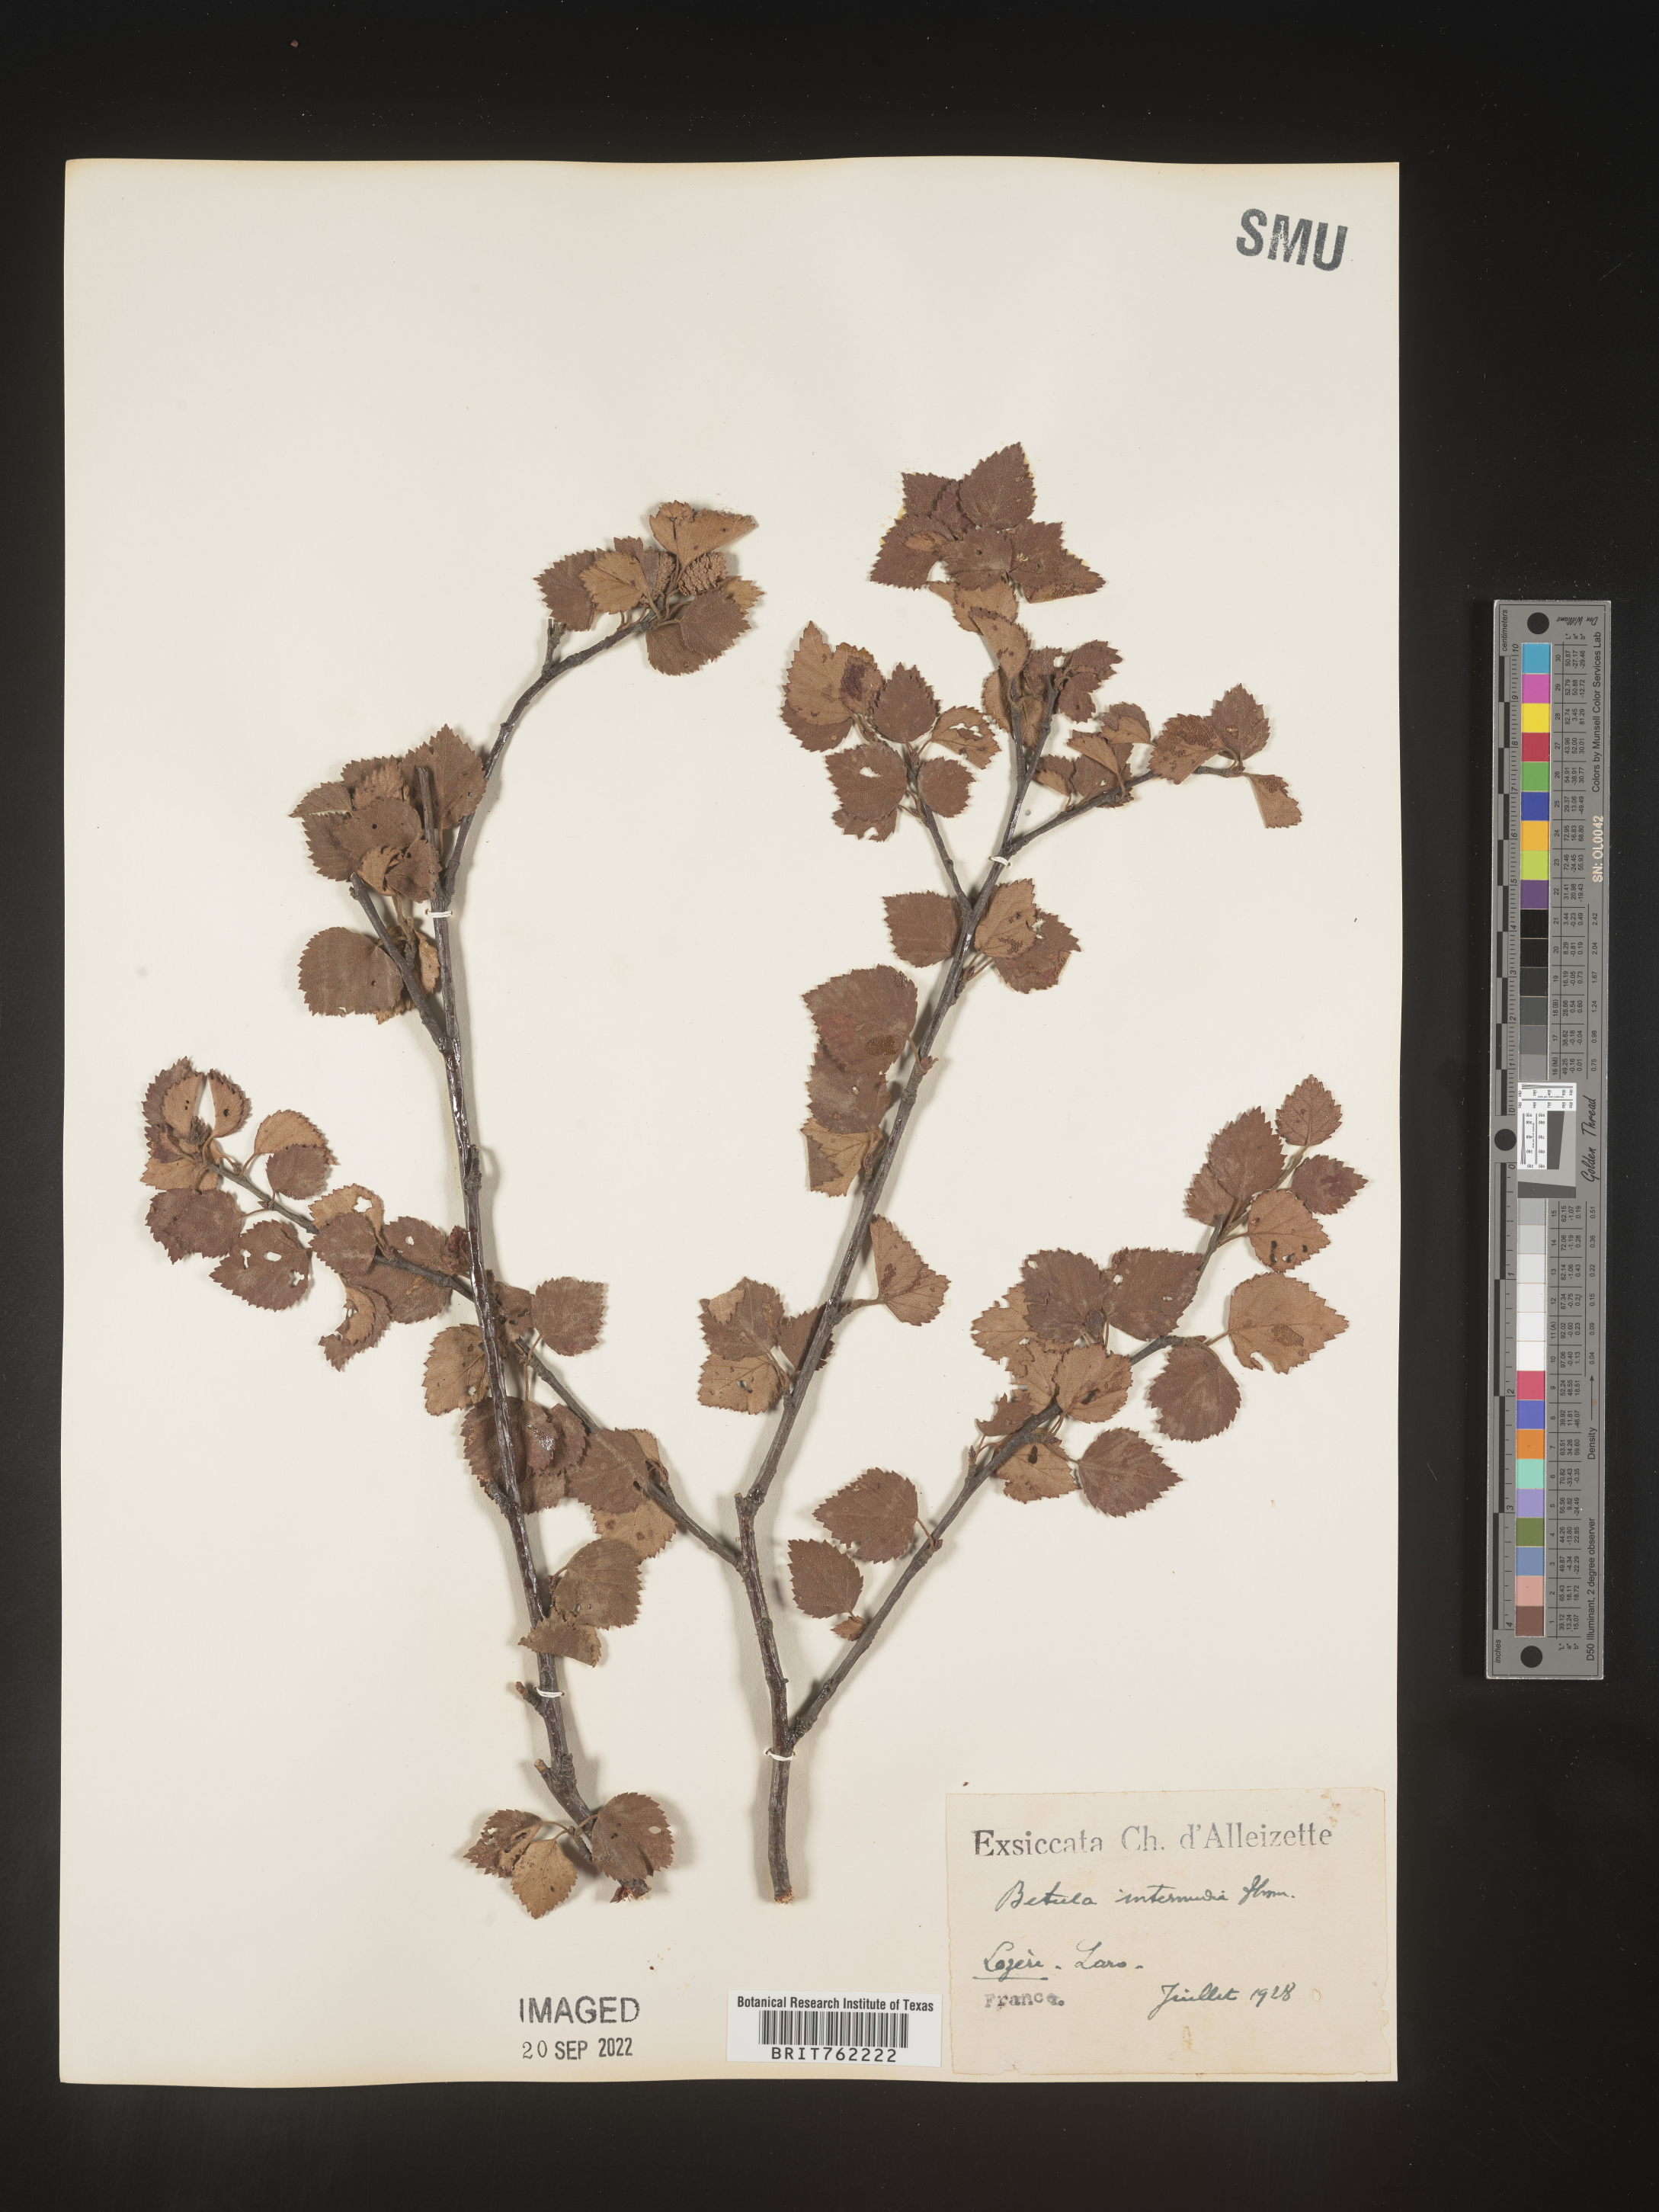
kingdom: Plantae
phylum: Tracheophyta
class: Magnoliopsida
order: Fagales
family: Betulaceae
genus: Betula
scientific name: Betula
